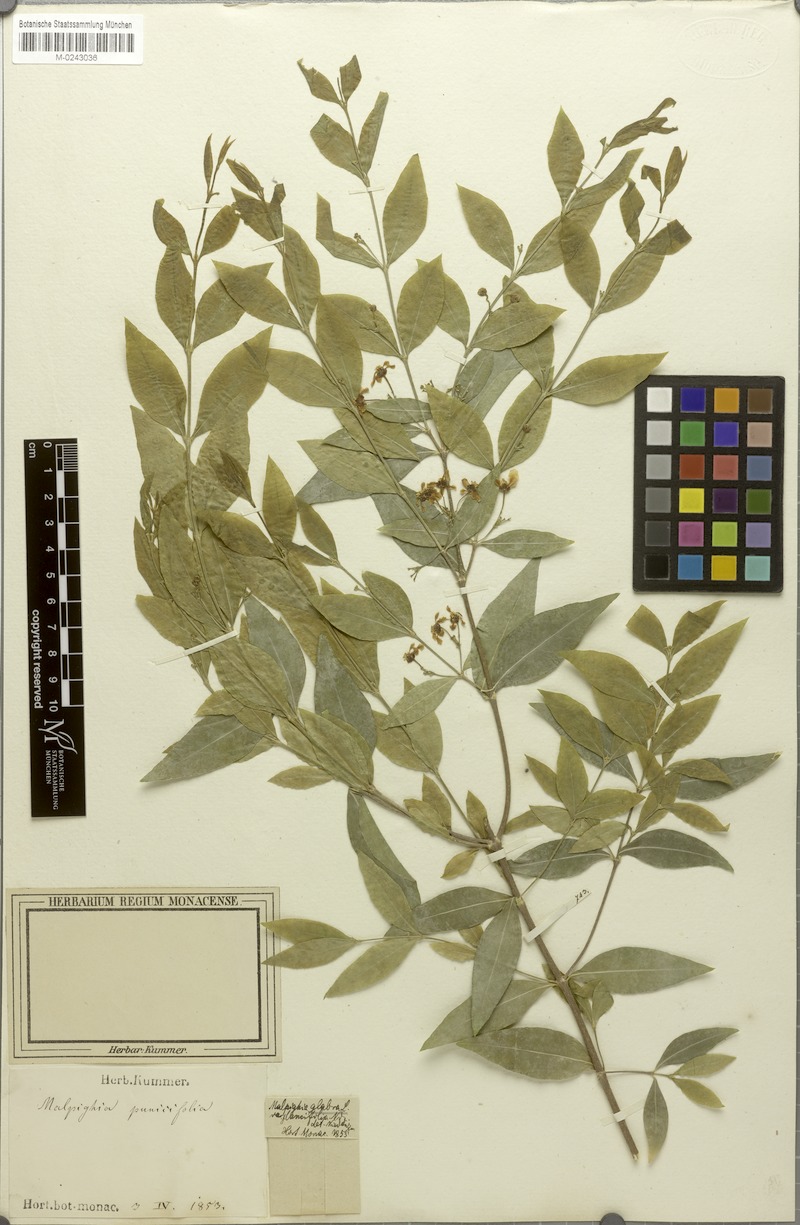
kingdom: Plantae
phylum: Tracheophyta
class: Magnoliopsida
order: Malpighiales
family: Malpighiaceae
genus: Malpighia
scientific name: Malpighia glabra
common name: Barbados cherry
